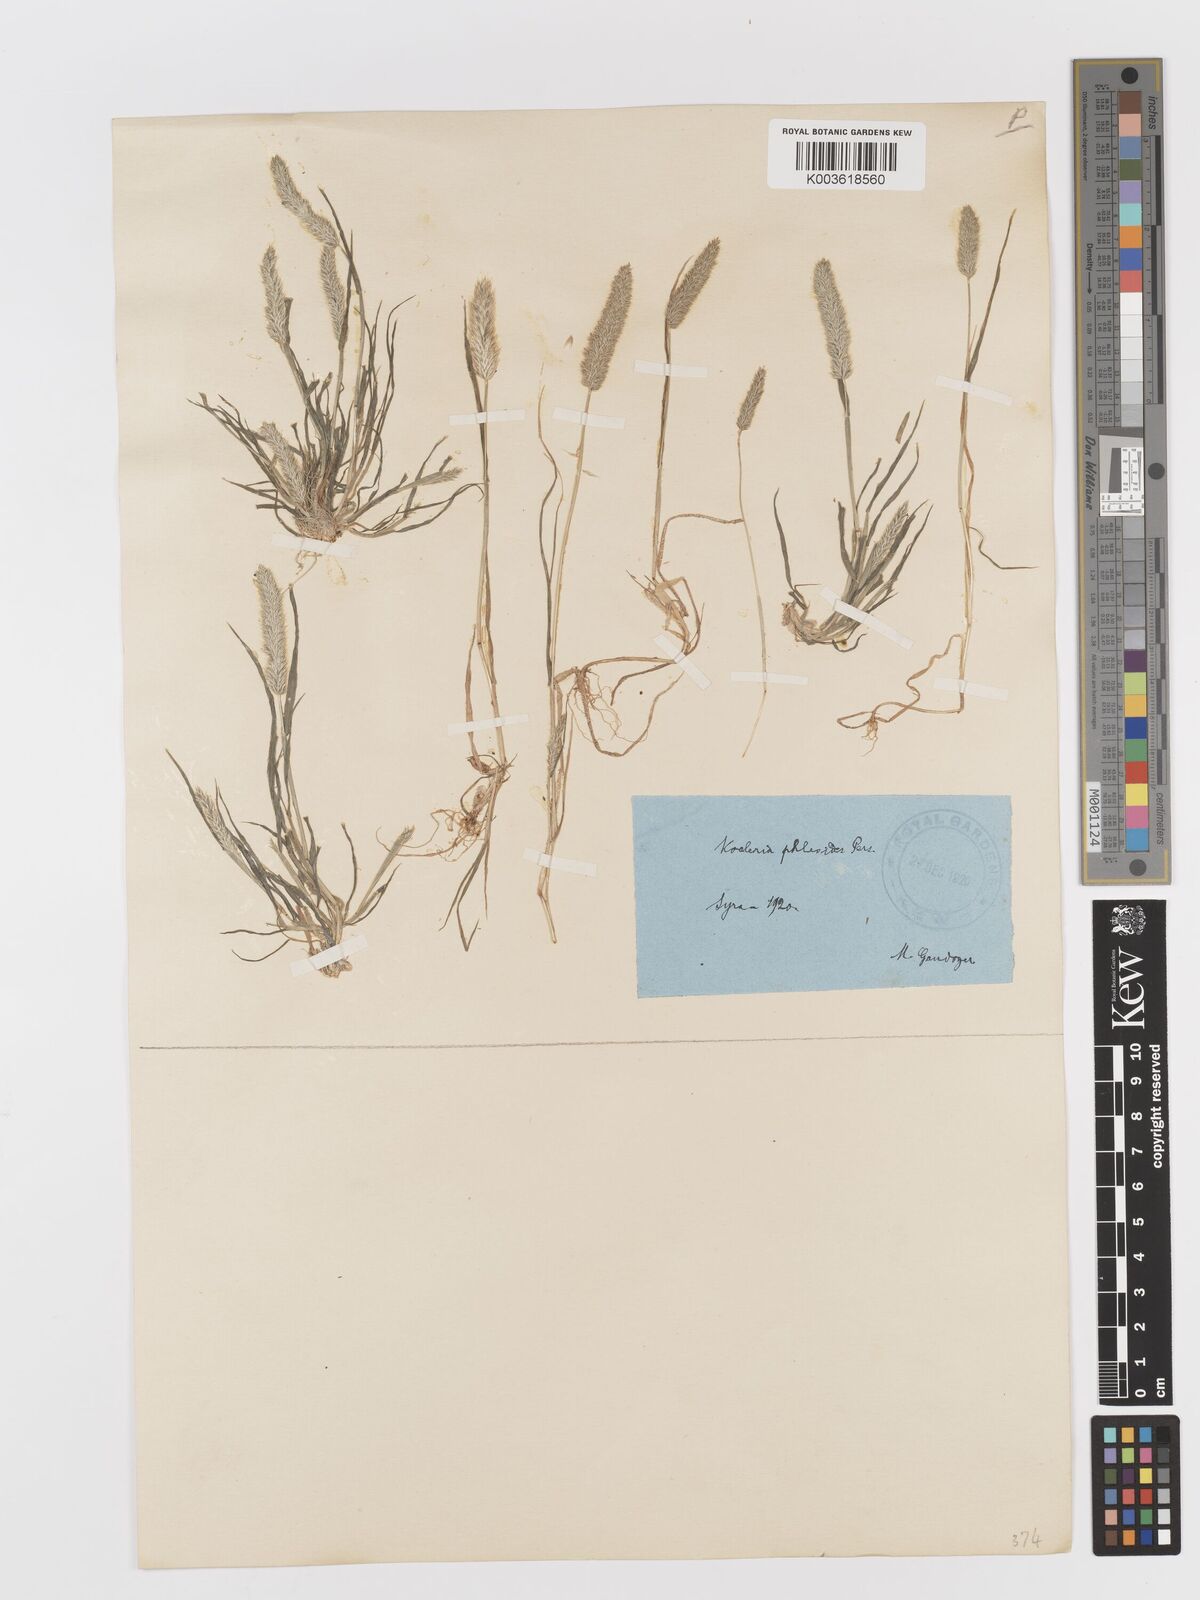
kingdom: Plantae
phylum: Tracheophyta
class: Liliopsida
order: Poales
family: Poaceae
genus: Rostraria
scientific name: Rostraria cristata
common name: Mediterranean hair-grass
